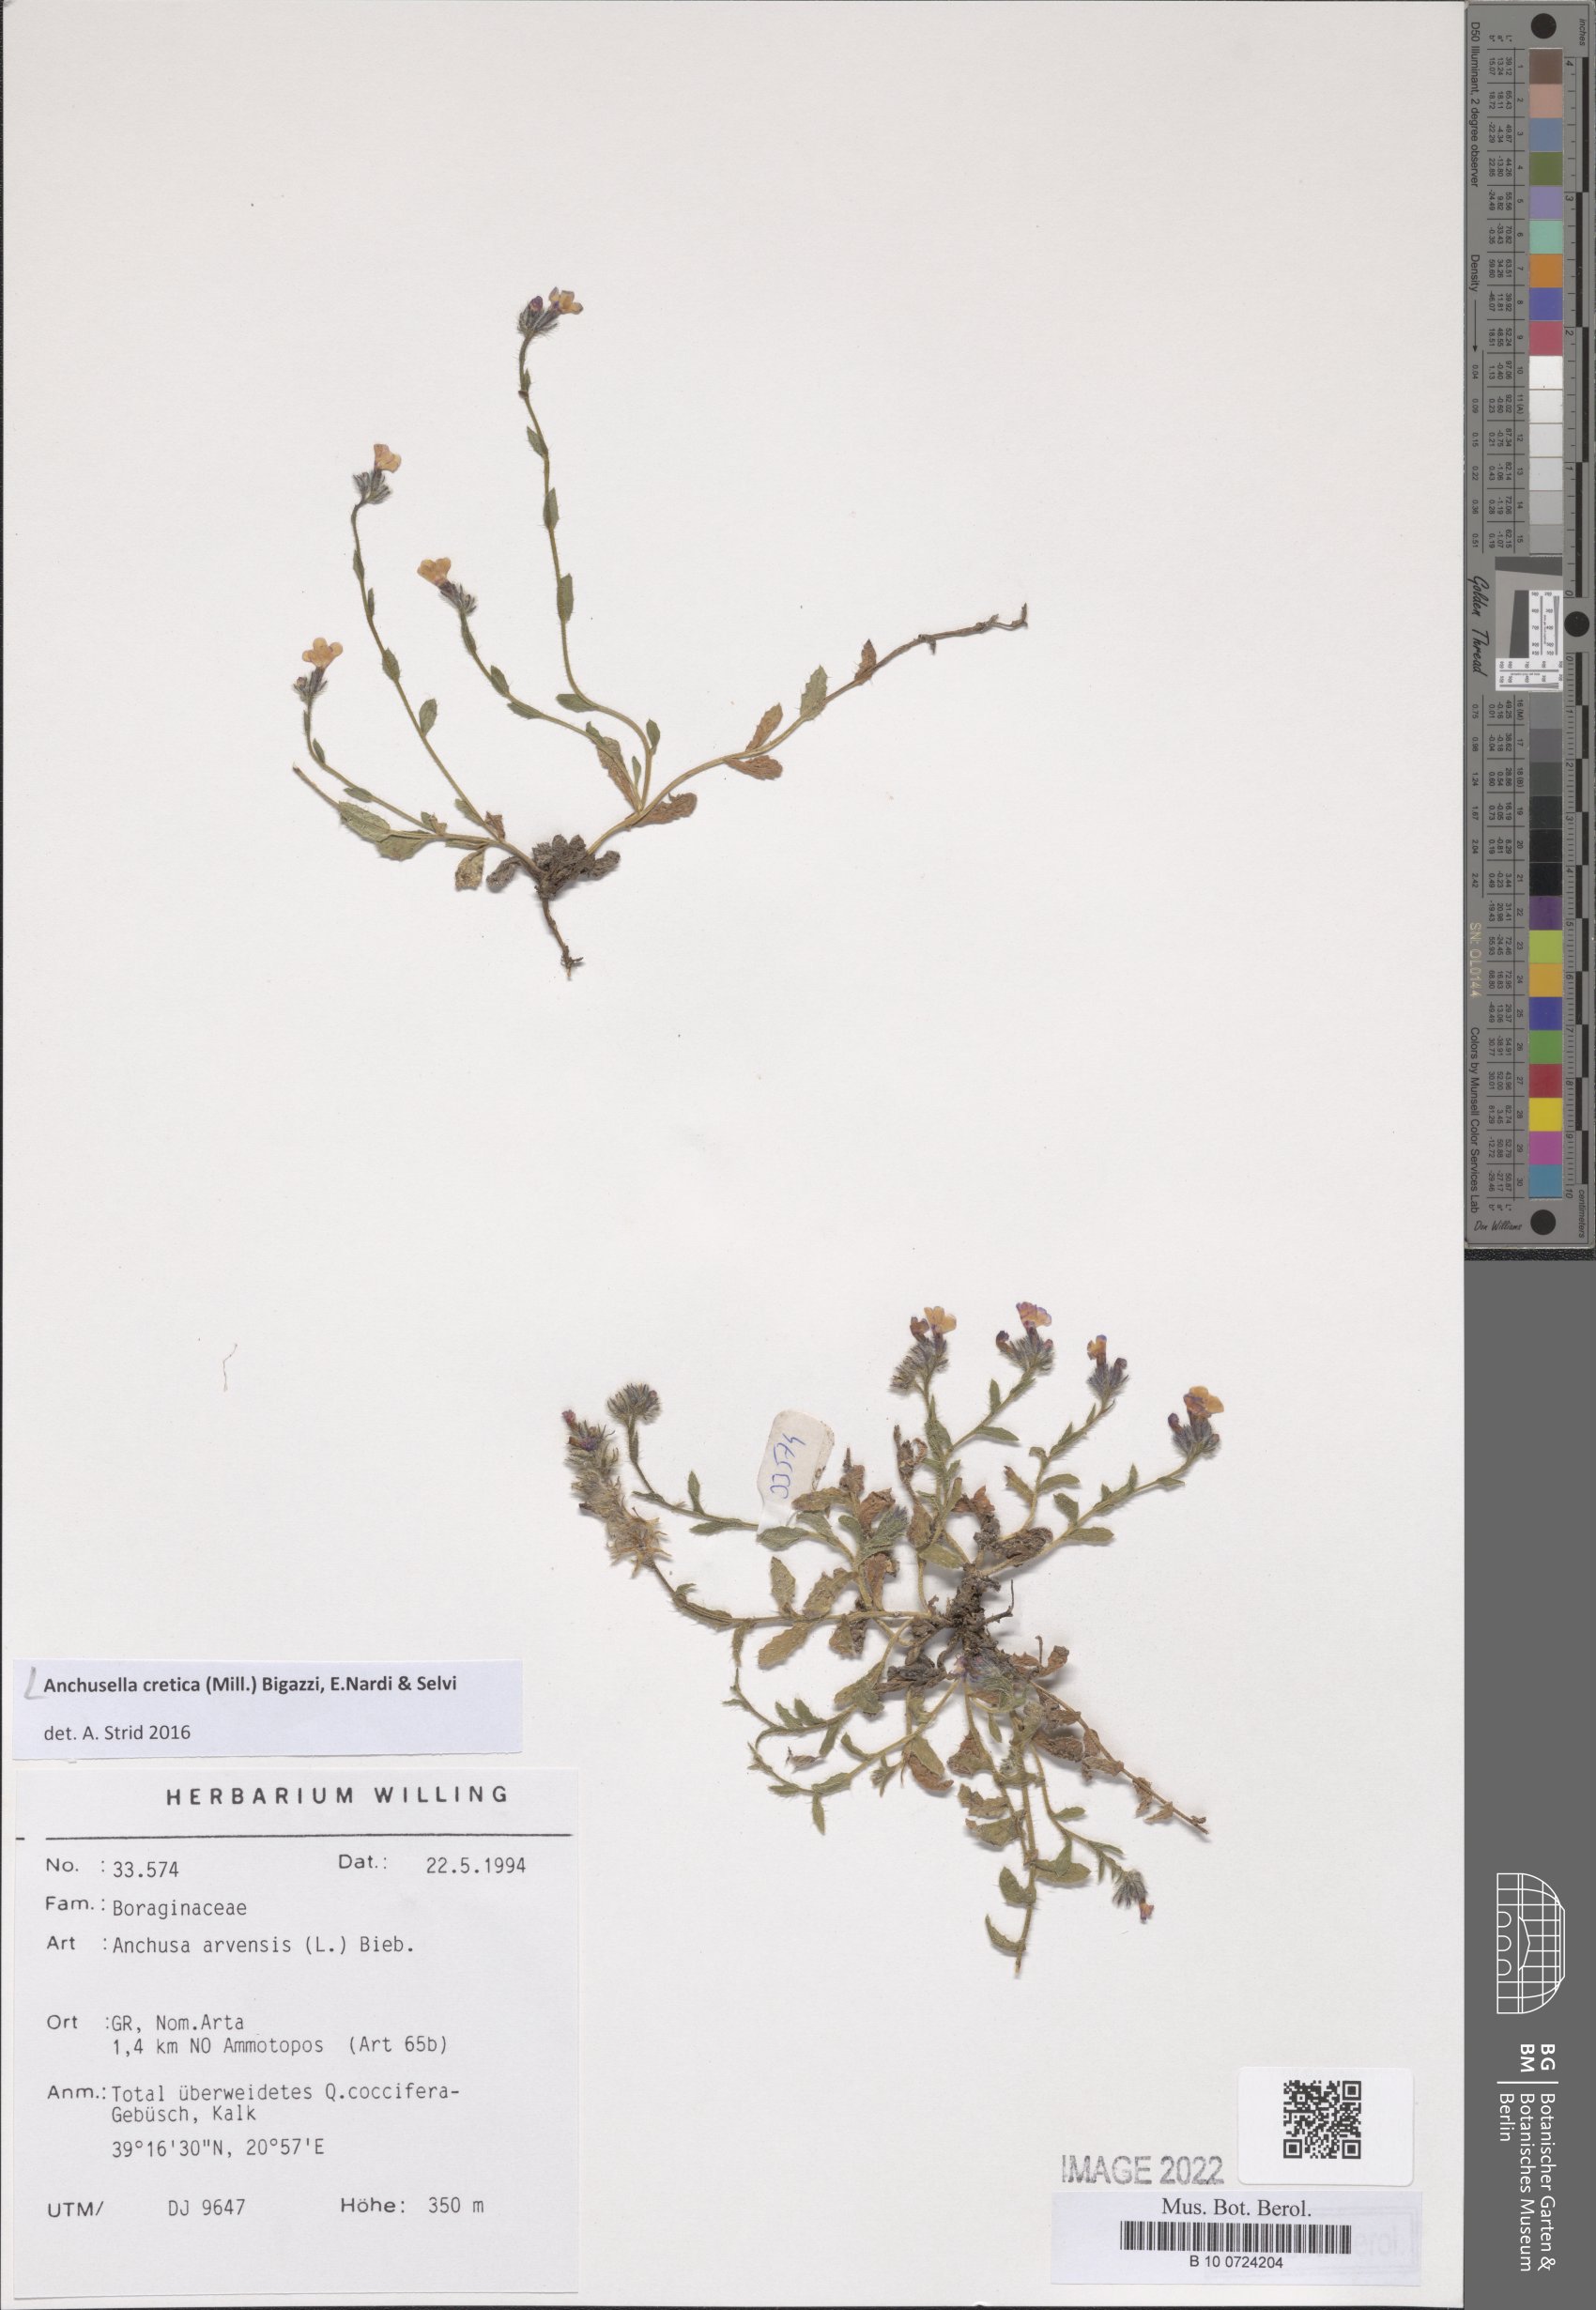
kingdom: Plantae
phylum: Tracheophyta
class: Magnoliopsida
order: Boraginales
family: Boraginaceae
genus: Anchusella
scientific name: Anchusella cretica
